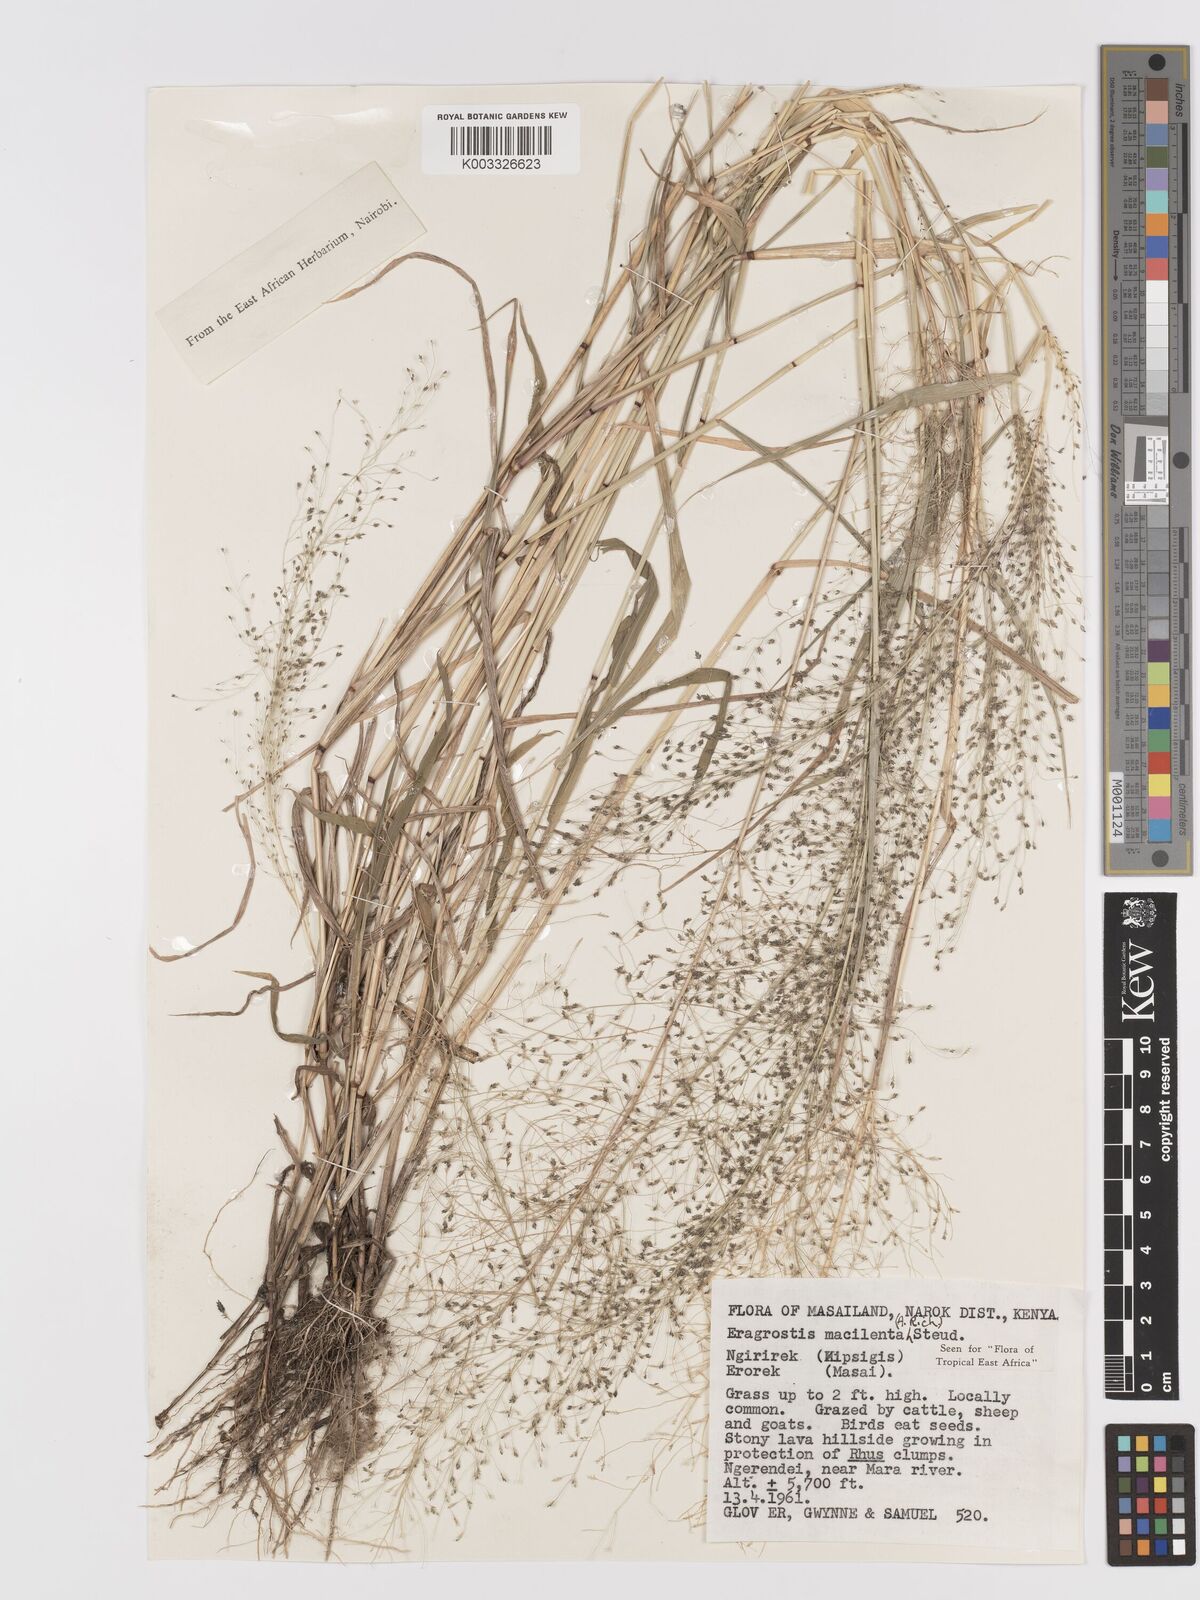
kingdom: Plantae
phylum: Tracheophyta
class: Liliopsida
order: Poales
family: Poaceae
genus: Eragrostis
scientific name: Eragrostis macilenta
